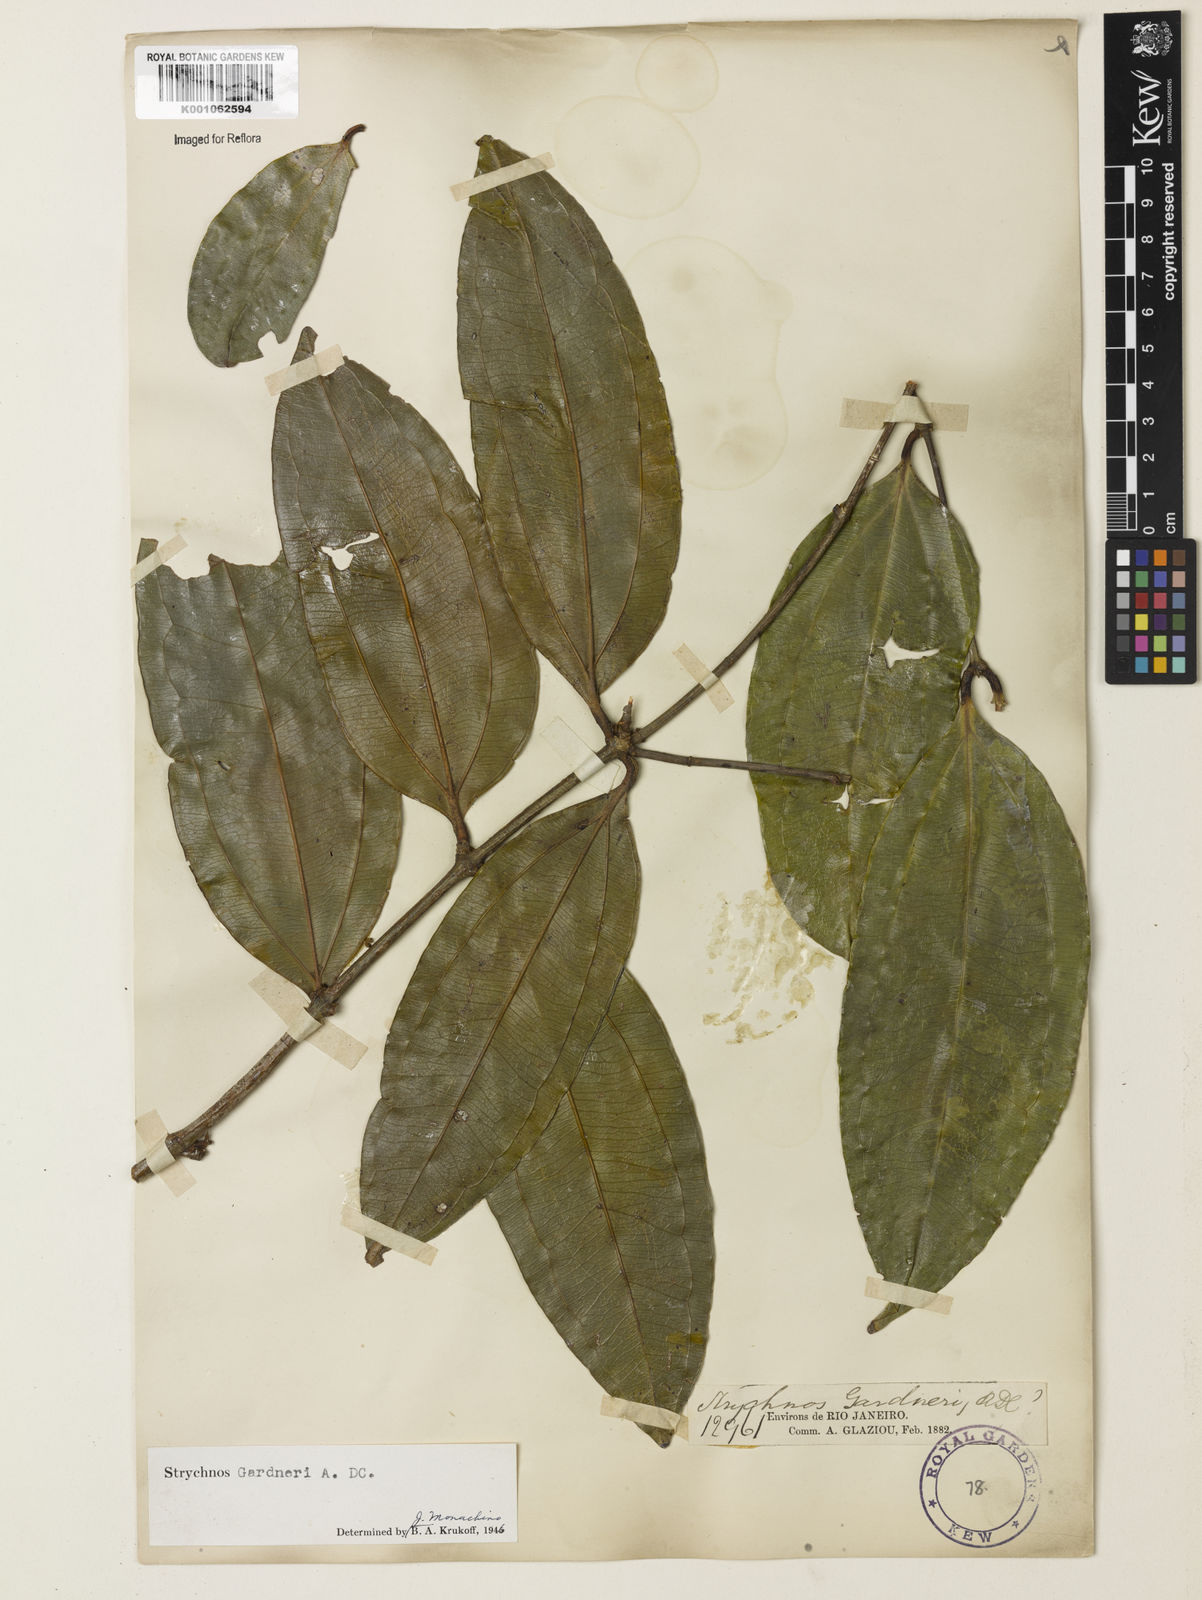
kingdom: Plantae
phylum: Tracheophyta
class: Magnoliopsida
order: Gentianales
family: Loganiaceae
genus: Strychnos
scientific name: Strychnos gardneri
